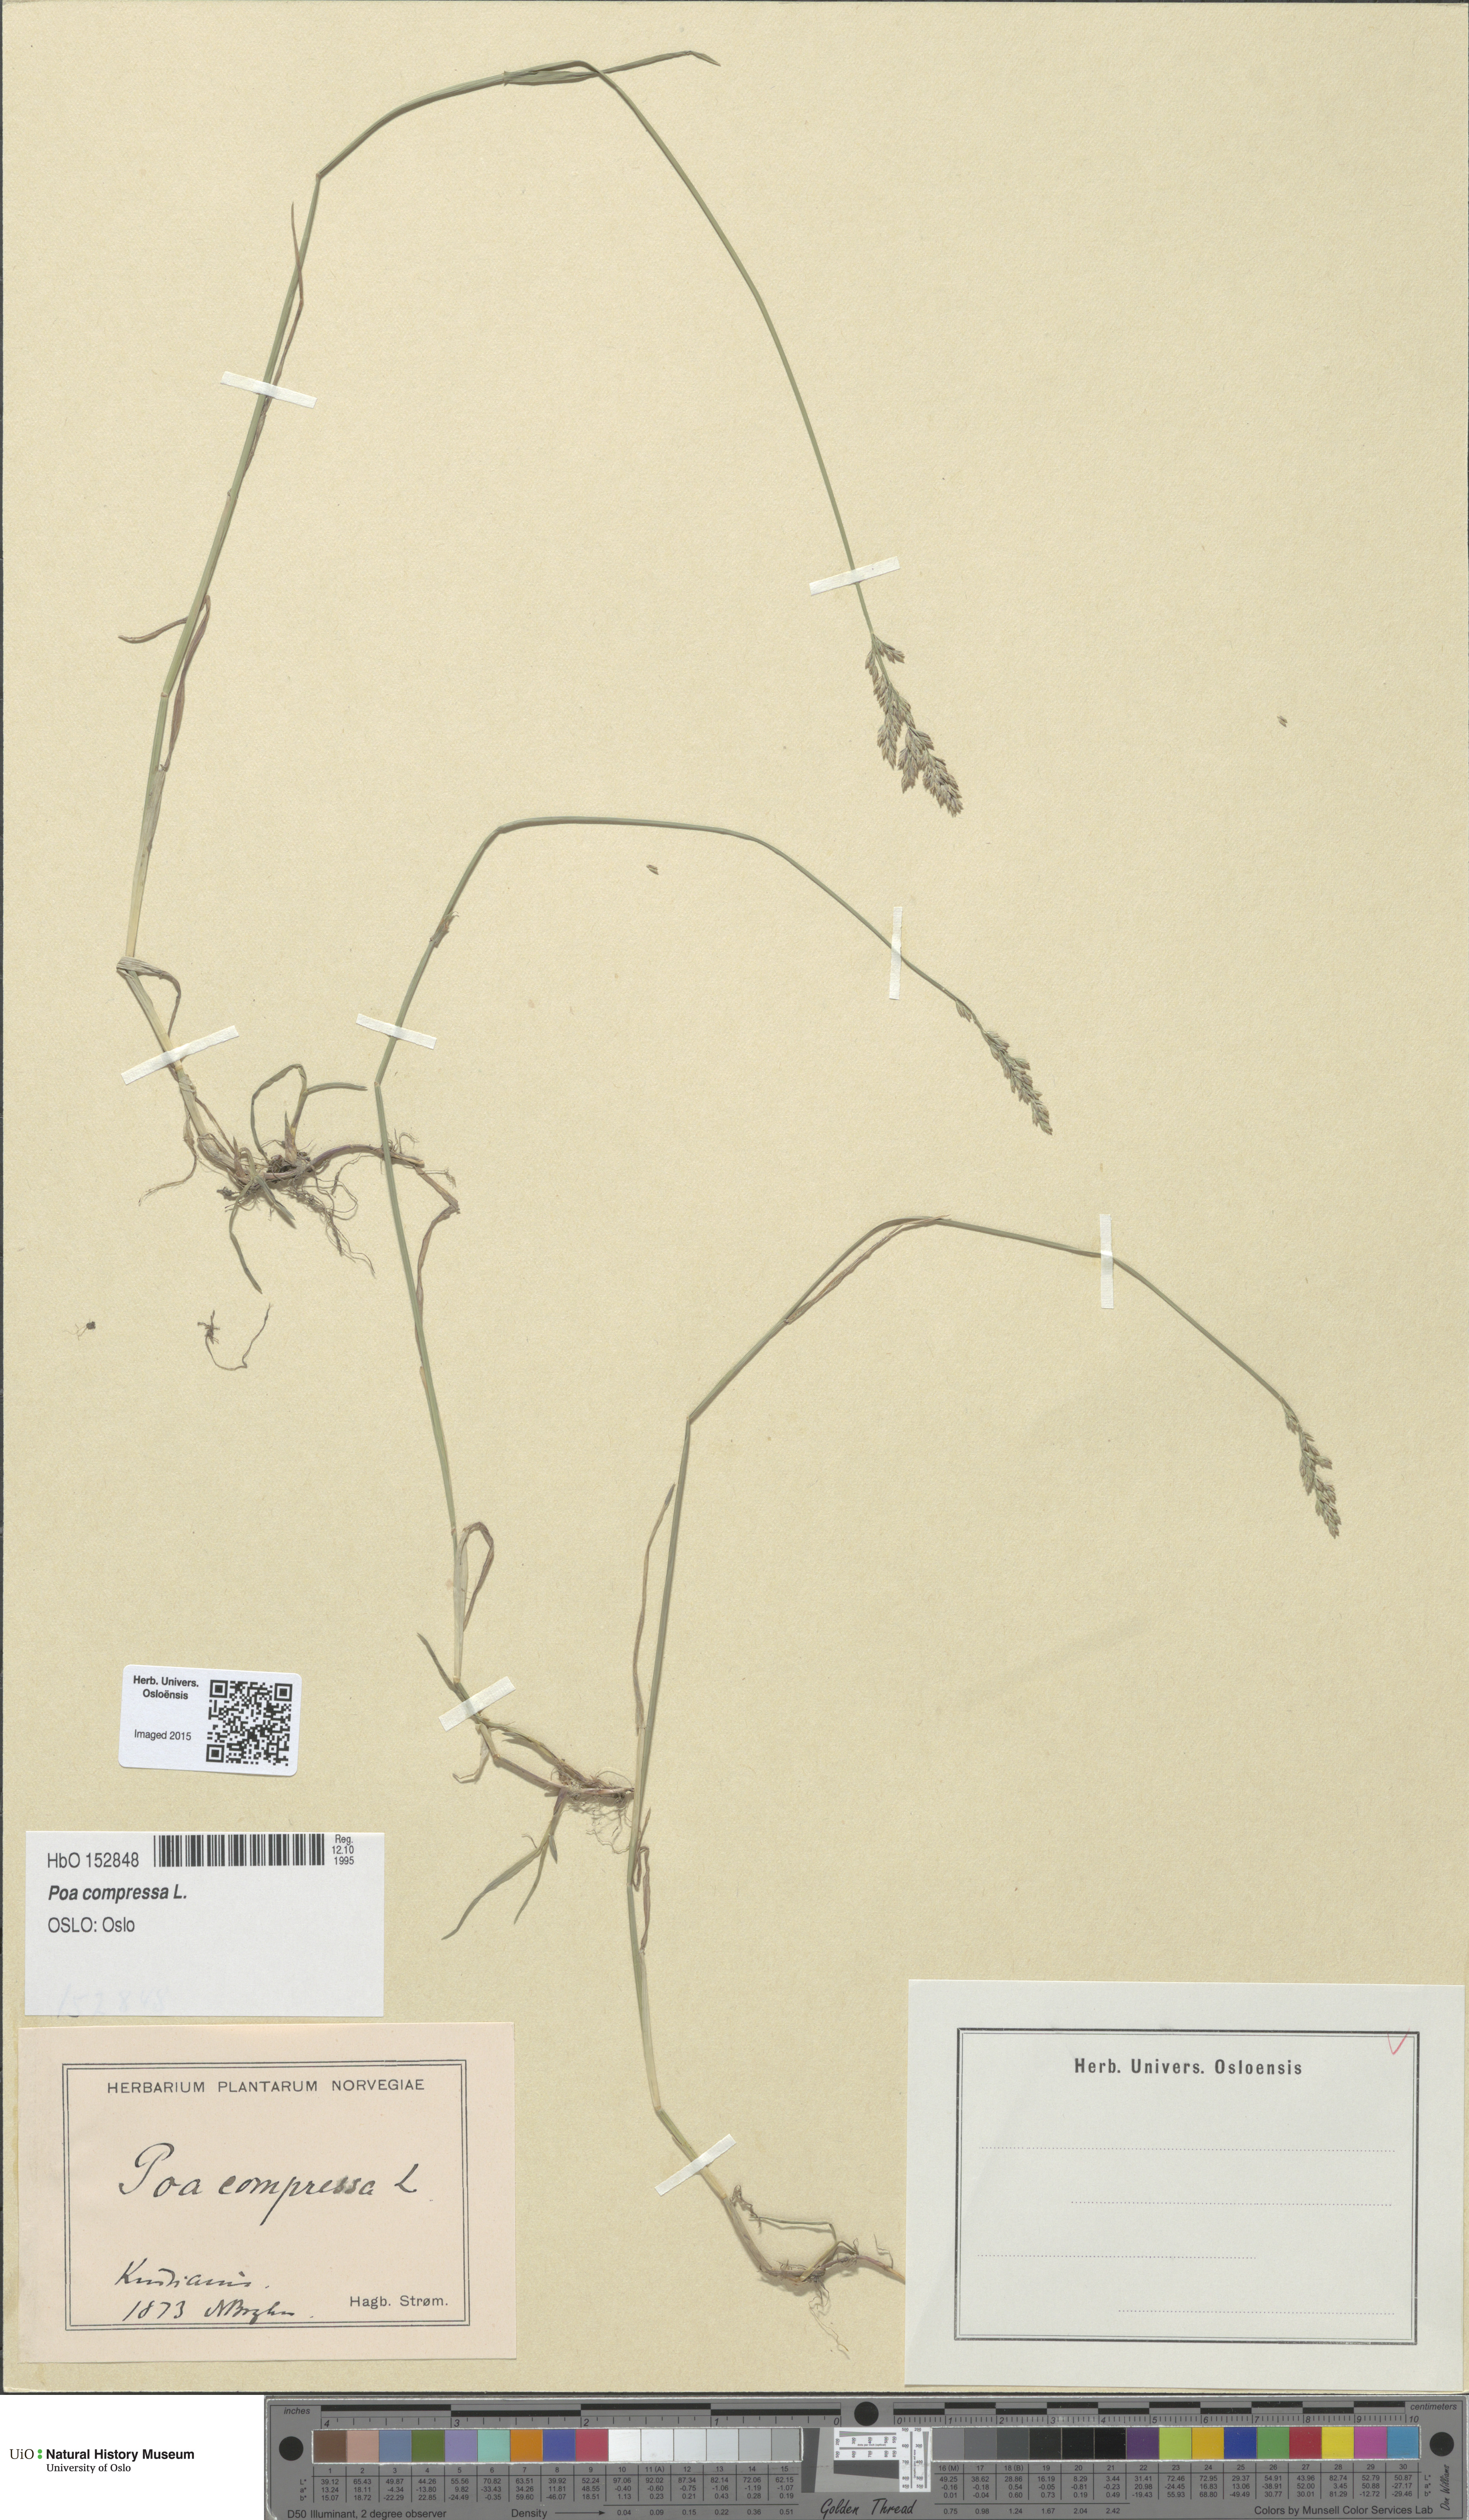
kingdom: Plantae
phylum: Tracheophyta
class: Liliopsida
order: Poales
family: Poaceae
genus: Poa
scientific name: Poa compressa
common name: Canada bluegrass
